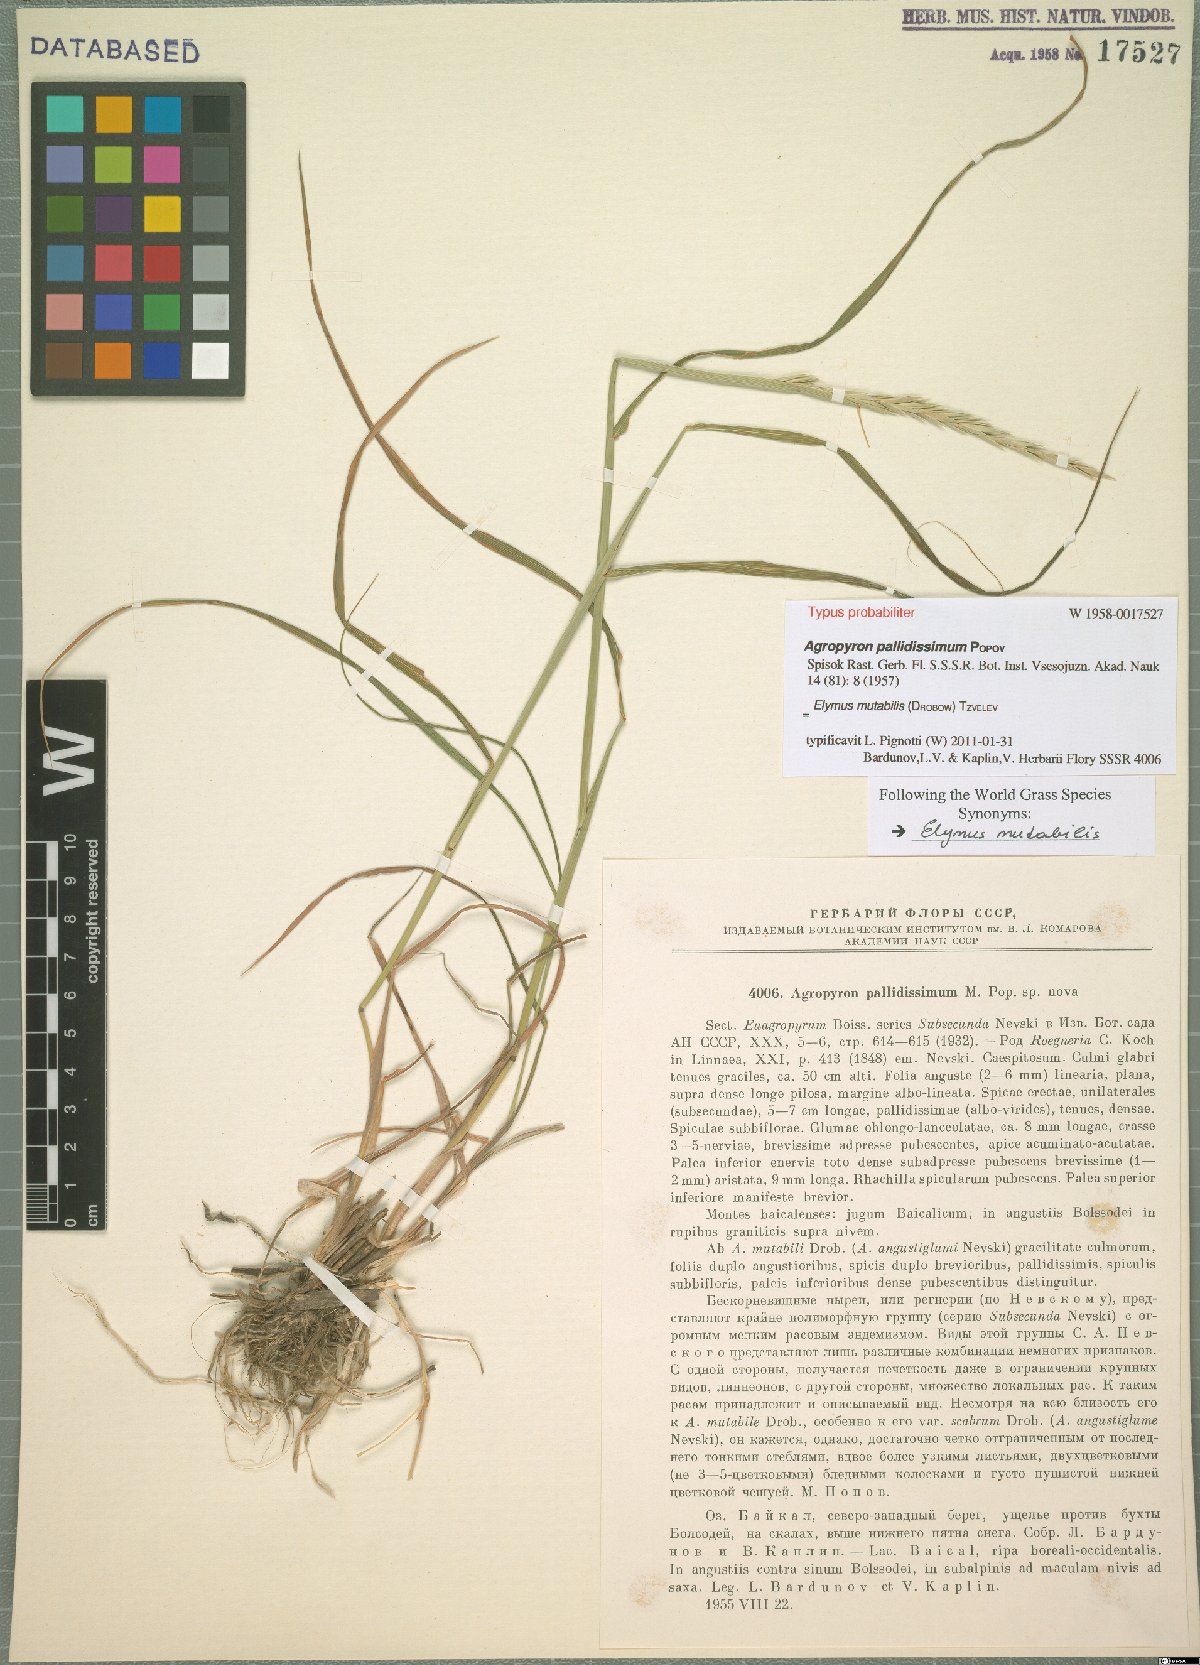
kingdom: Plantae
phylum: Tracheophyta
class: Liliopsida
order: Poales
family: Poaceae
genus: Elymus
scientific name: Elymus mutabilis
